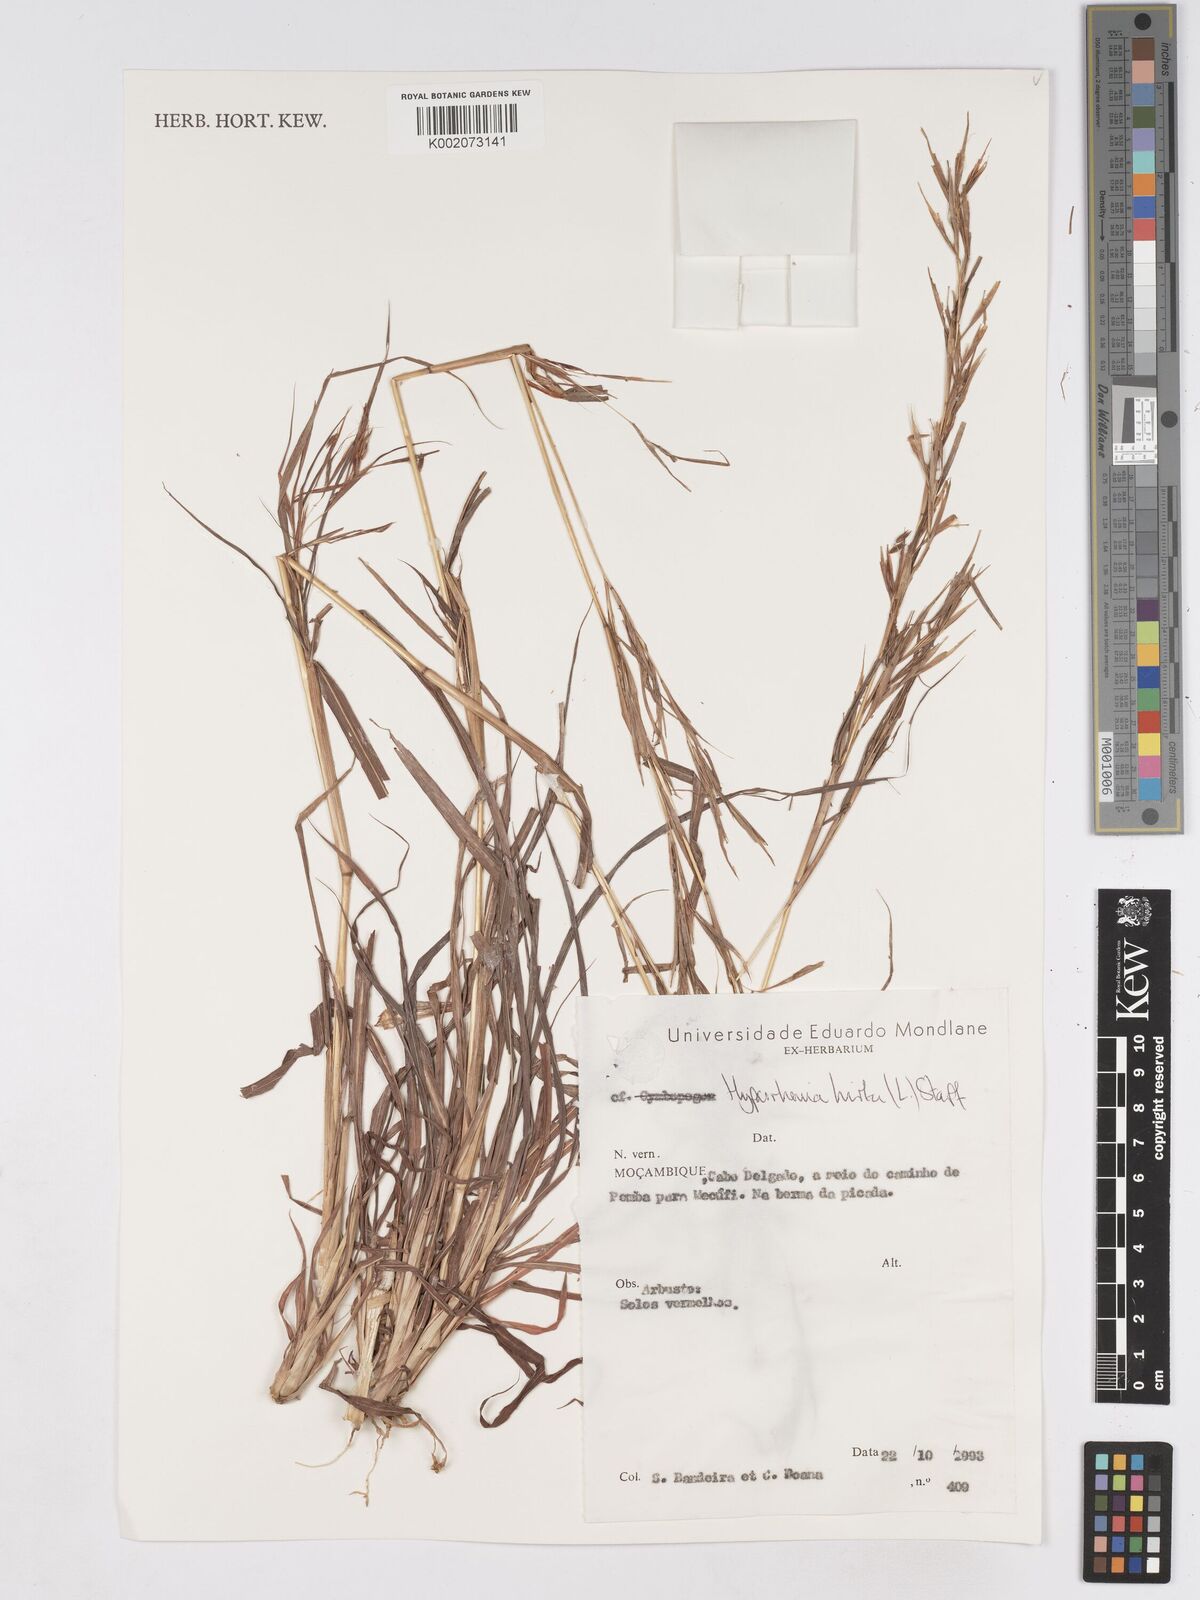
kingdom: Plantae
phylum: Tracheophyta
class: Liliopsida
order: Poales
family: Poaceae
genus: Hyparrhenia
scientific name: Hyparrhenia hirta
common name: Thatching grass
